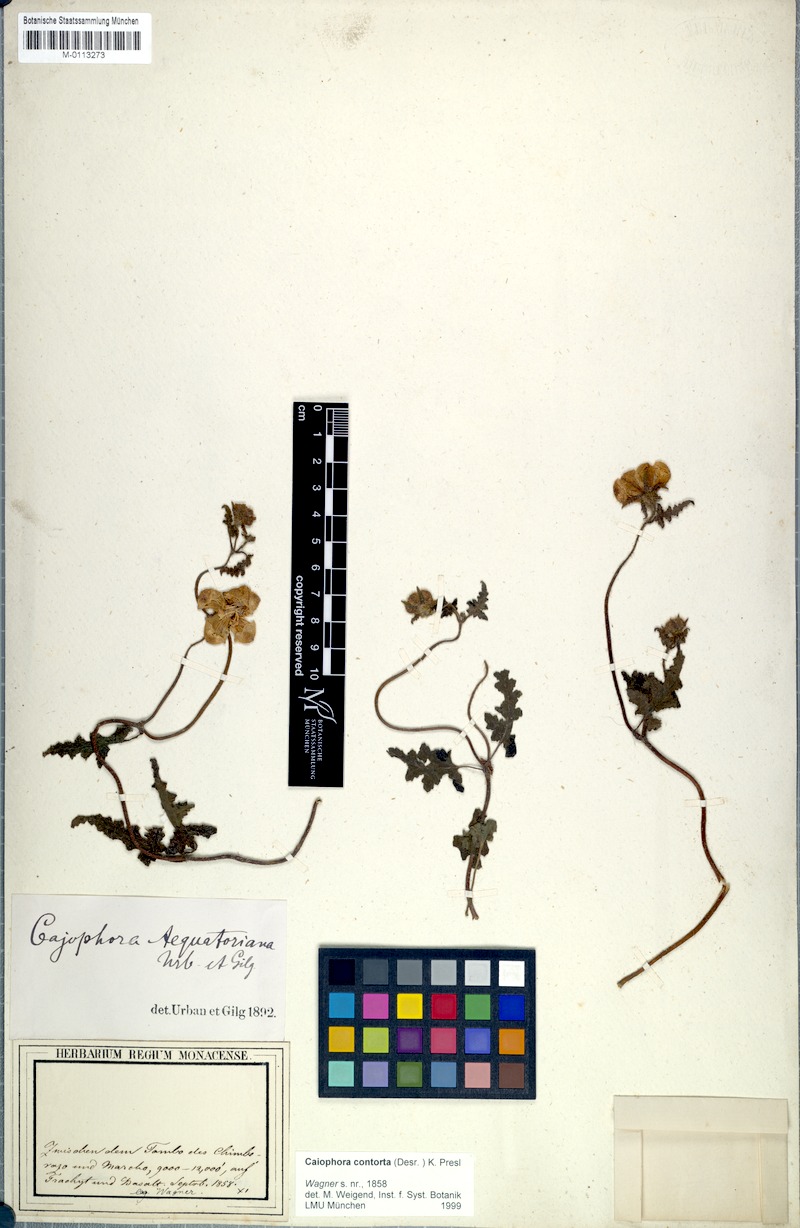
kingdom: Plantae
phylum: Tracheophyta
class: Magnoliopsida
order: Cornales
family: Loasaceae
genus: Caiophora
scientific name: Caiophora contorta
